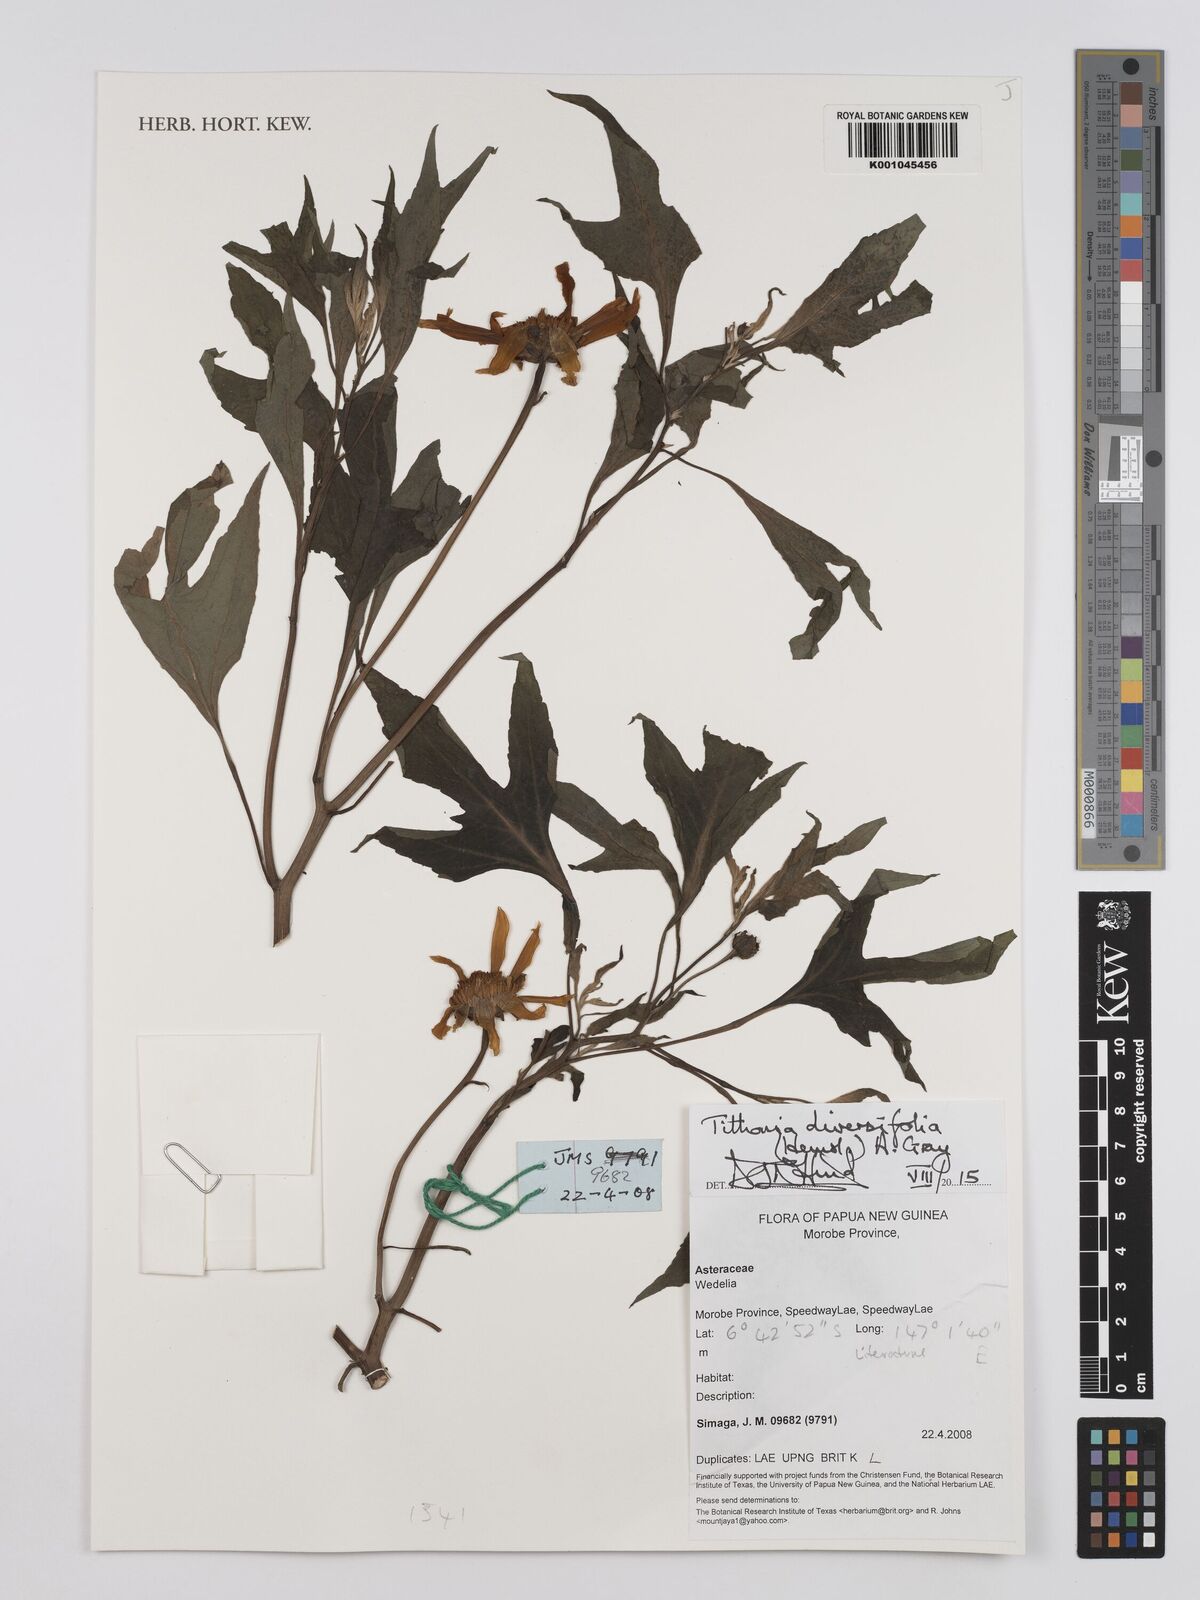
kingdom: Plantae
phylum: Tracheophyta
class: Magnoliopsida
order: Asterales
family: Asteraceae
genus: Tithonia
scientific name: Tithonia diversifolia
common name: Tree marigold
